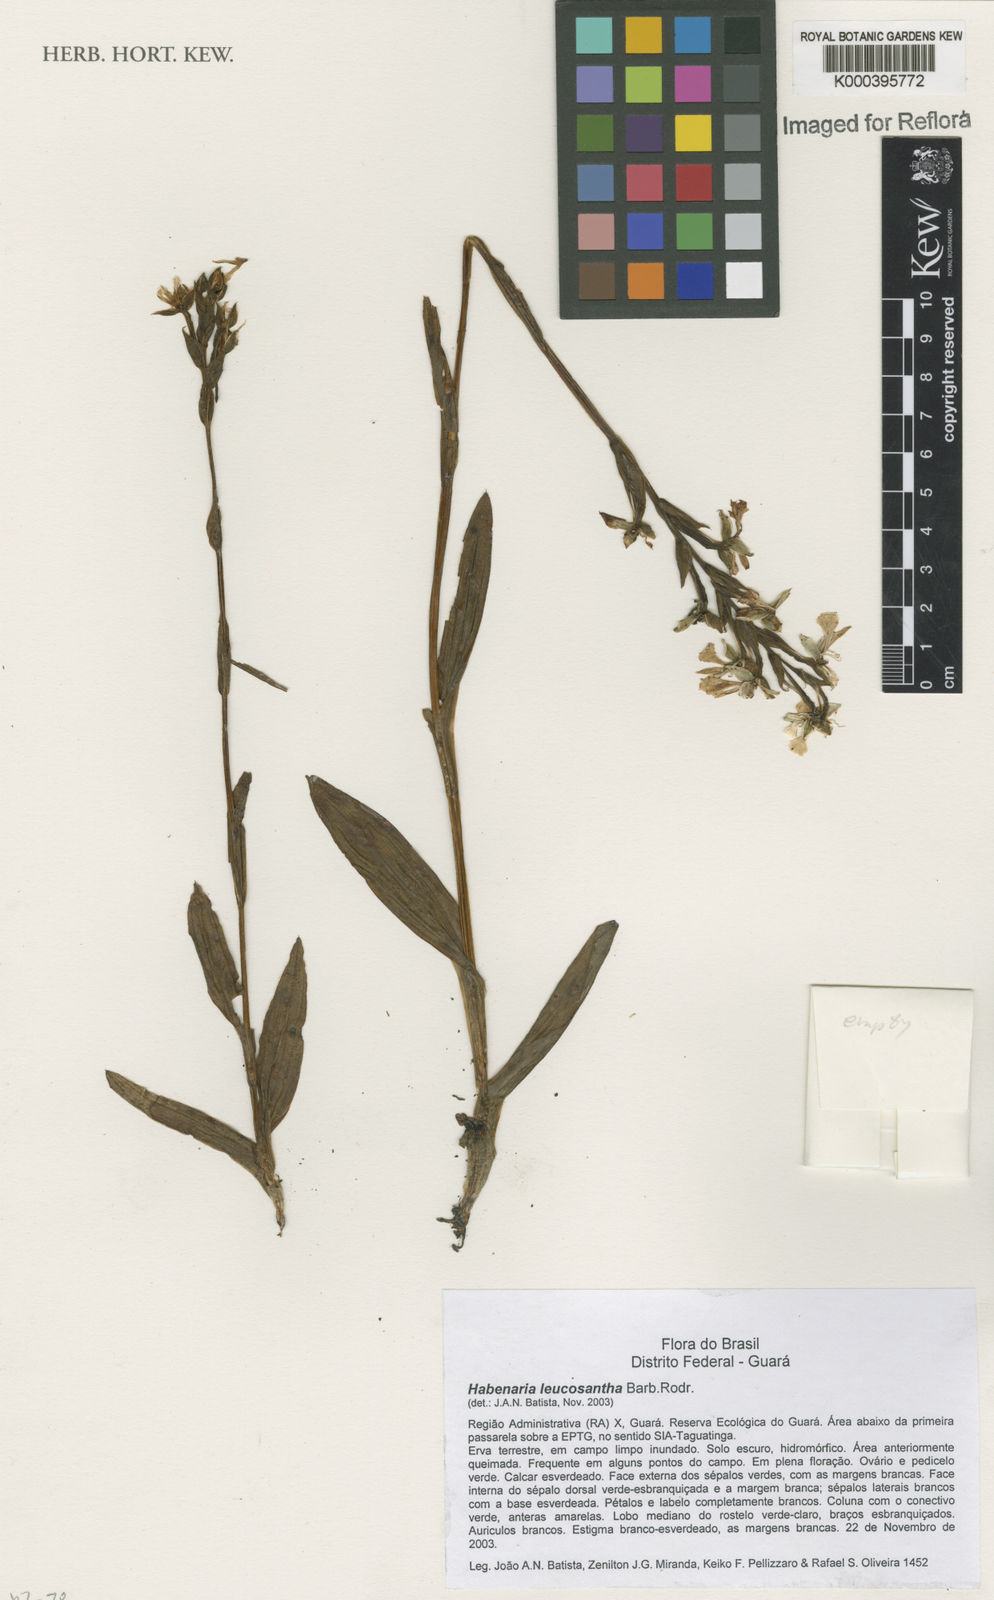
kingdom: Plantae
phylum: Tracheophyta
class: Liliopsida
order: Asparagales
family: Orchidaceae
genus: Habenaria
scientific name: Habenaria leucosantha
